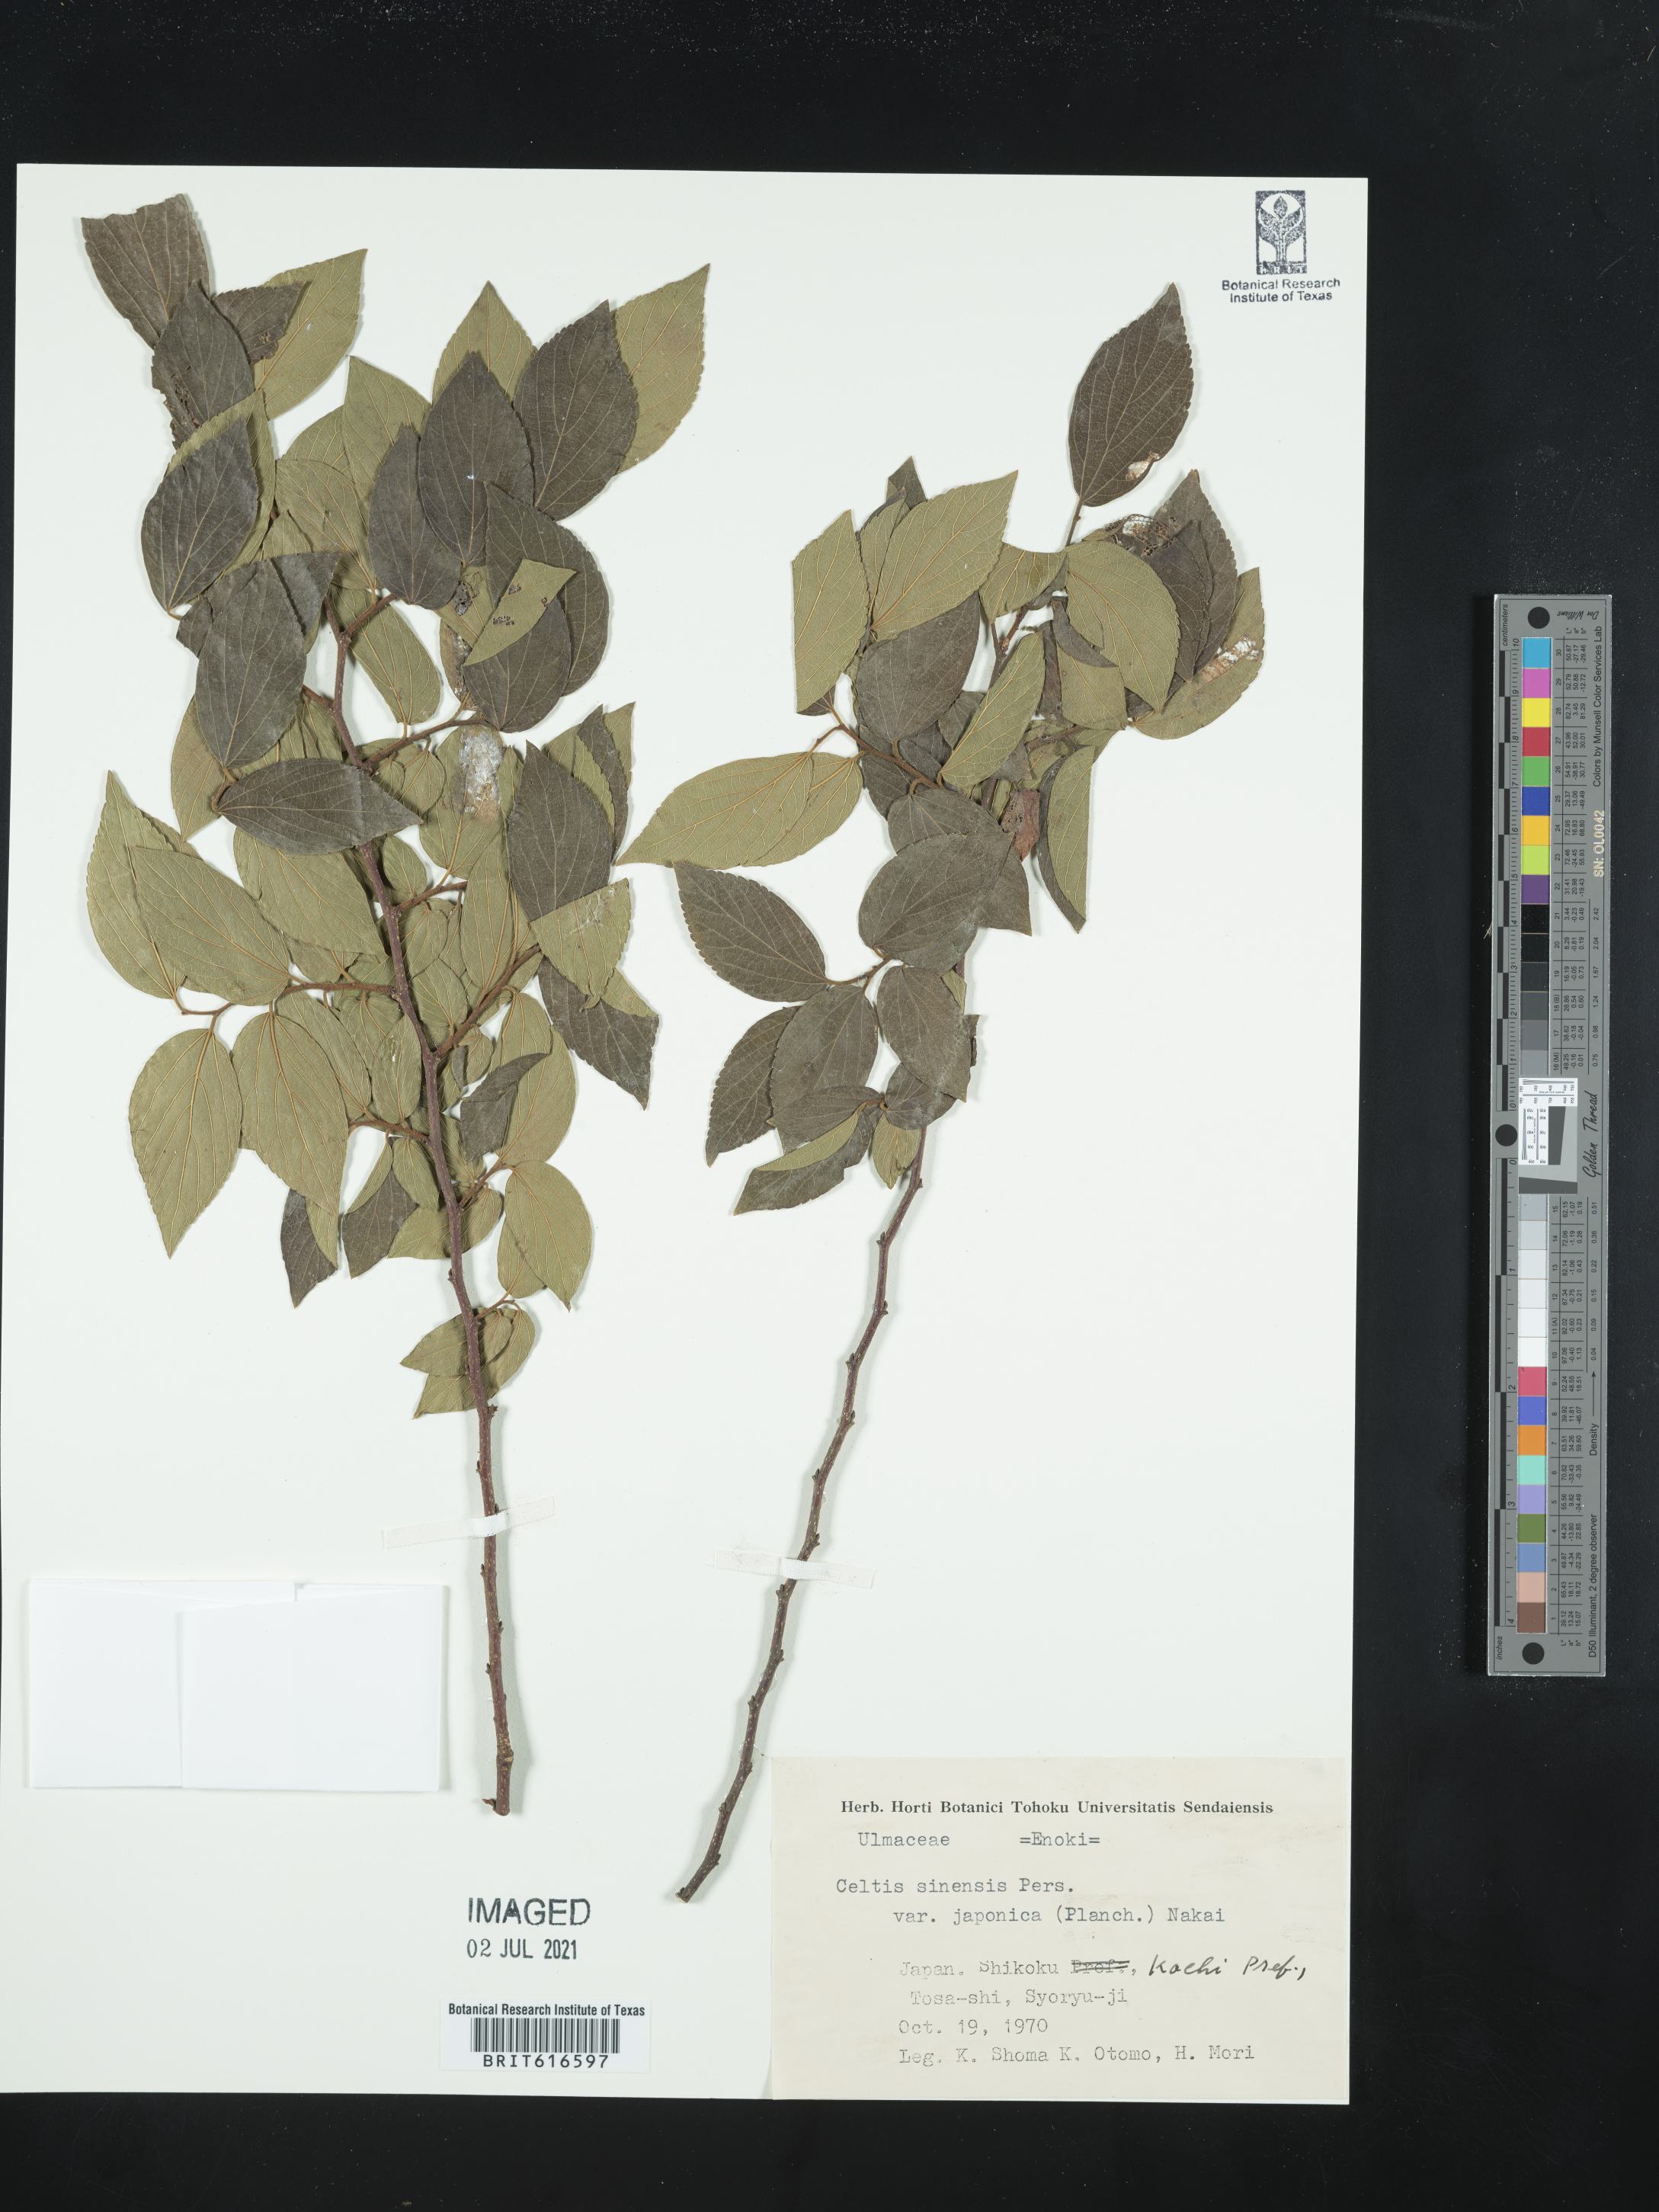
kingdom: Plantae
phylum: Tracheophyta
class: Magnoliopsida
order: Rosales
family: Cannabaceae
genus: Celtis
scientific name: Celtis sinensis
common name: Chinese hackberry
